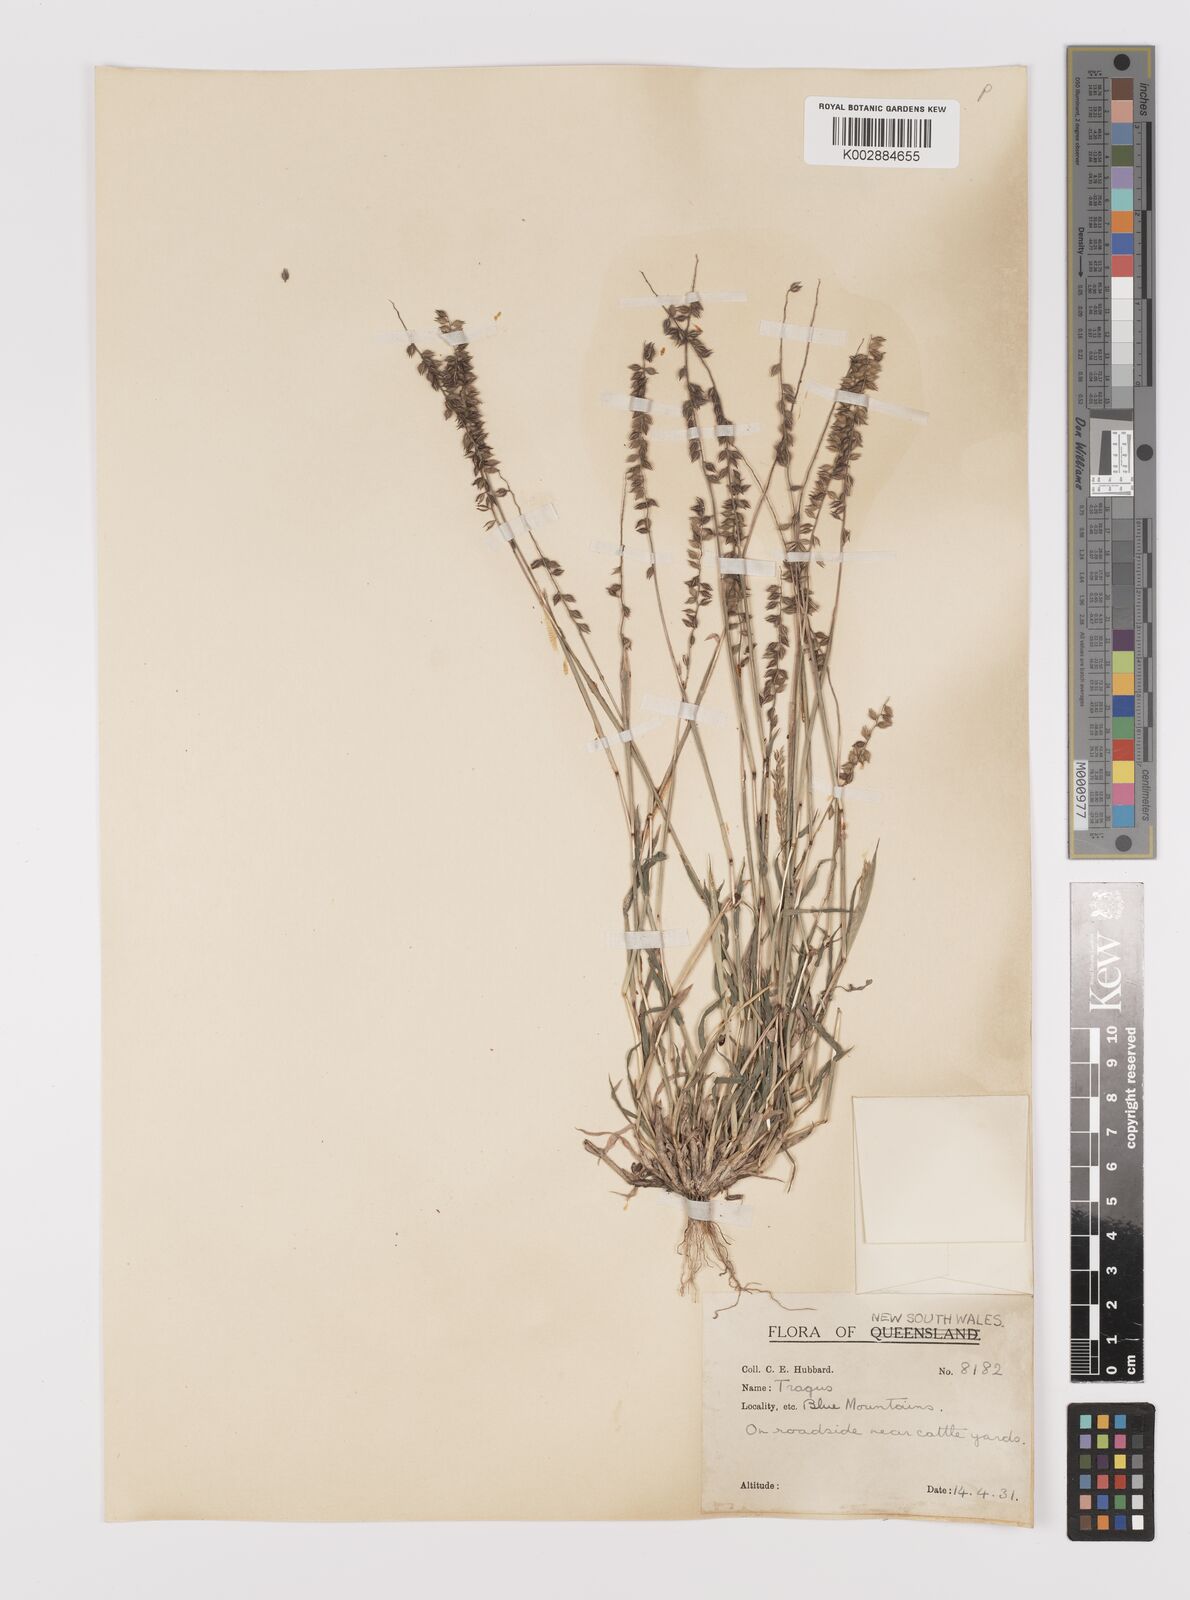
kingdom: Plantae
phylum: Tracheophyta
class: Liliopsida
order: Poales
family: Poaceae
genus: Tragus
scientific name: Tragus australianus
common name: Australian bur-grass
